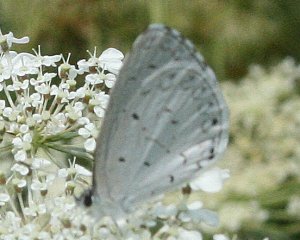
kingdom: Animalia
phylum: Arthropoda
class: Insecta
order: Lepidoptera
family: Lycaenidae
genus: Cyaniris
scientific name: Cyaniris neglecta
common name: Summer Azure
